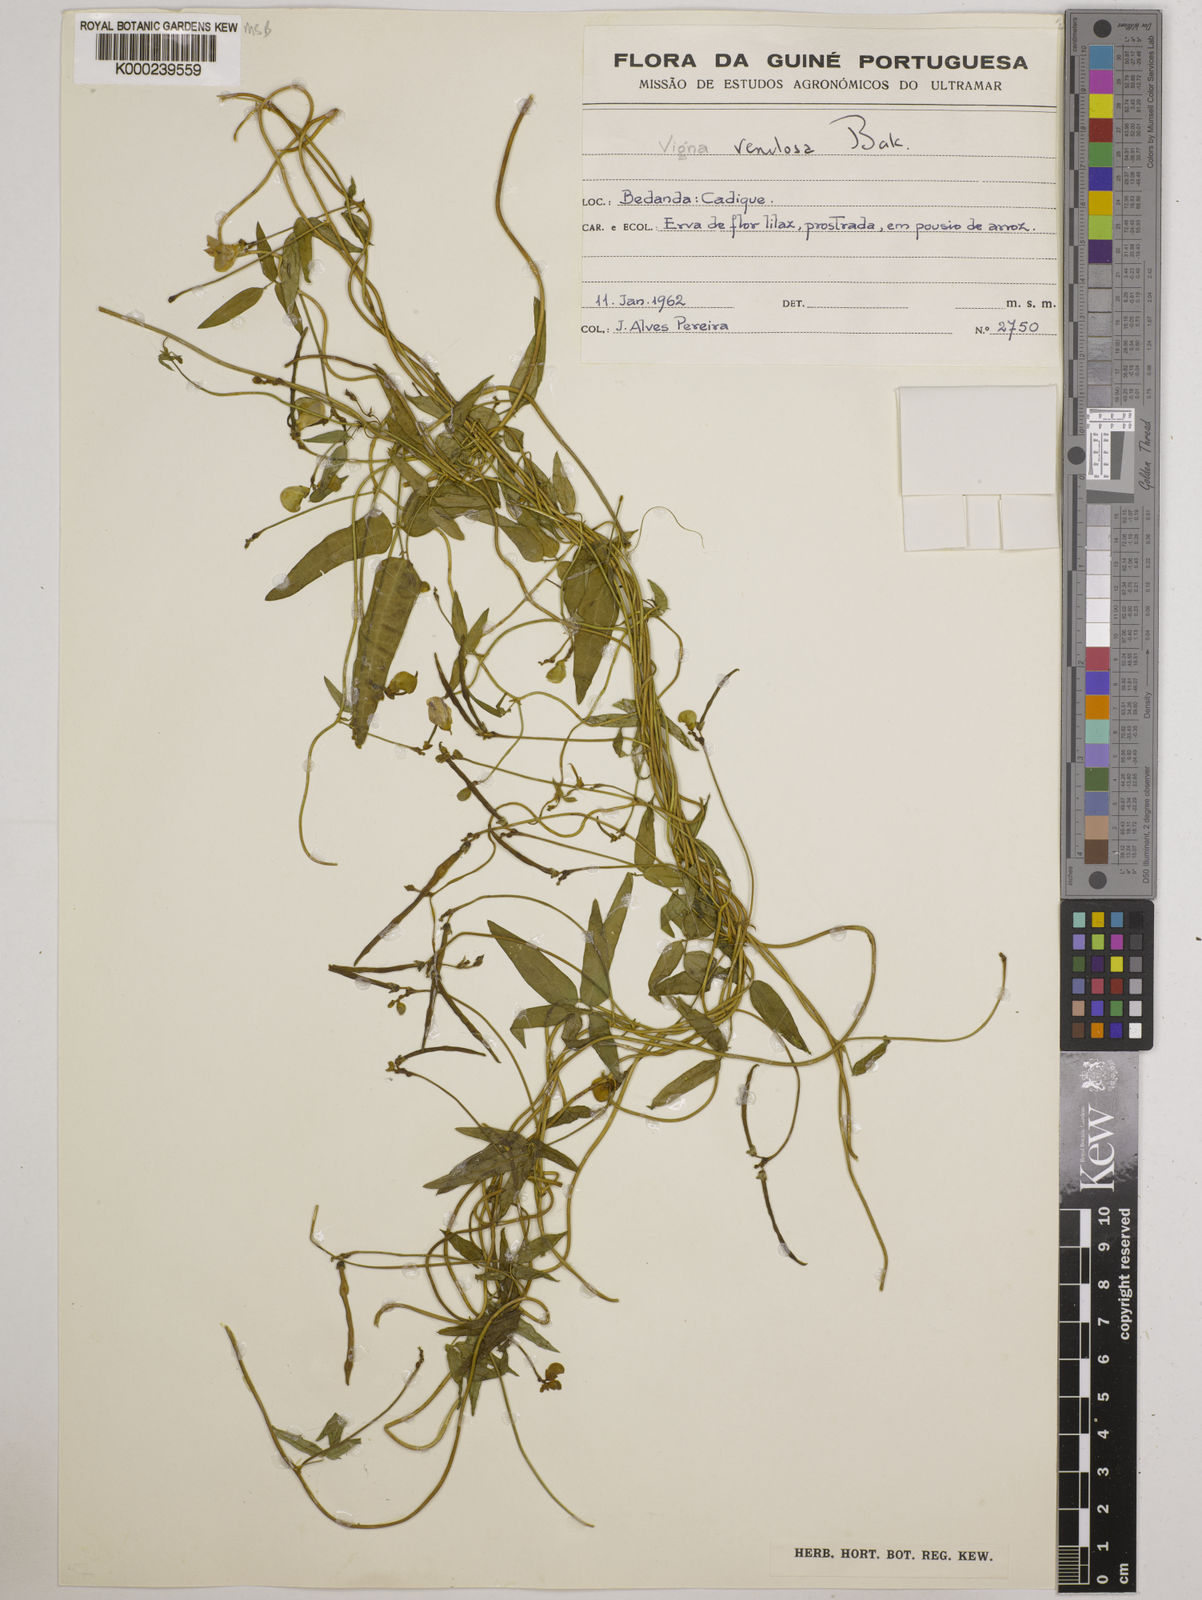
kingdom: Plantae
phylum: Tracheophyta
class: Magnoliopsida
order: Fabales
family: Fabaceae
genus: Vigna
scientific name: Vigna venulosa
